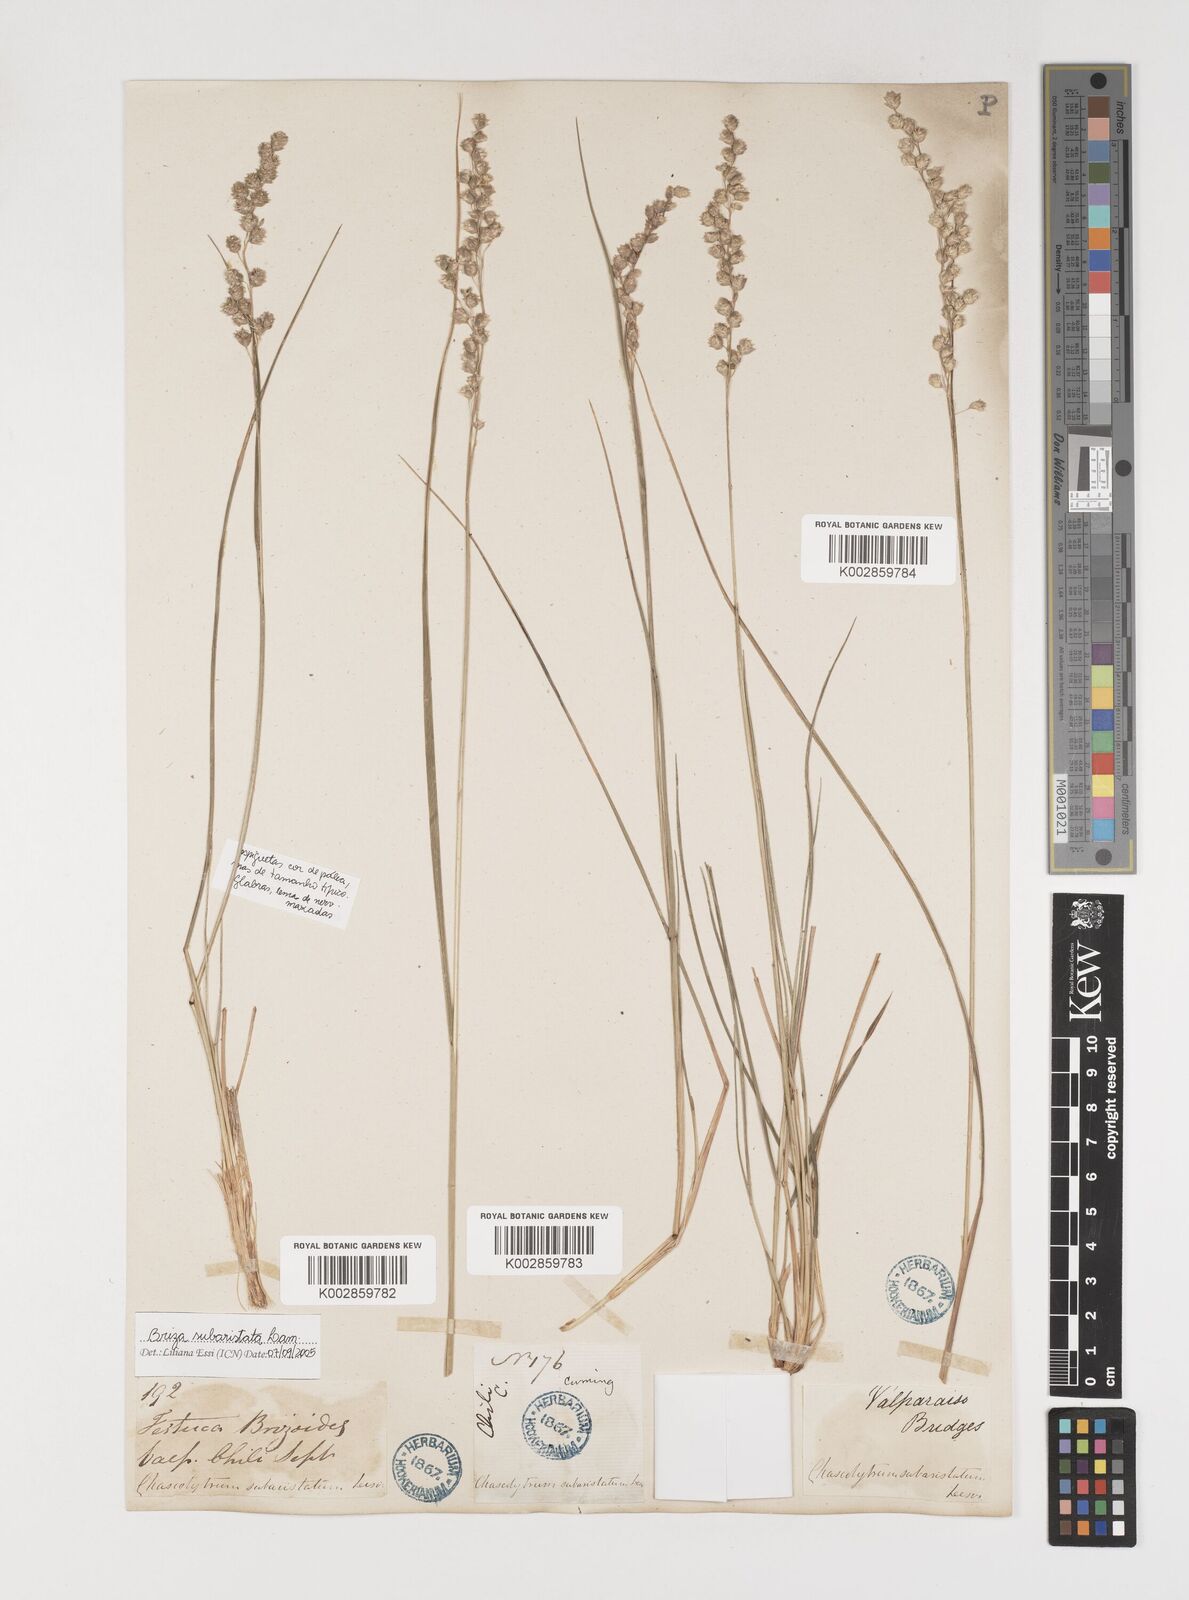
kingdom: Plantae
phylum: Tracheophyta
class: Liliopsida
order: Poales
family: Poaceae
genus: Chascolytrum
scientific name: Chascolytrum subaristatum
